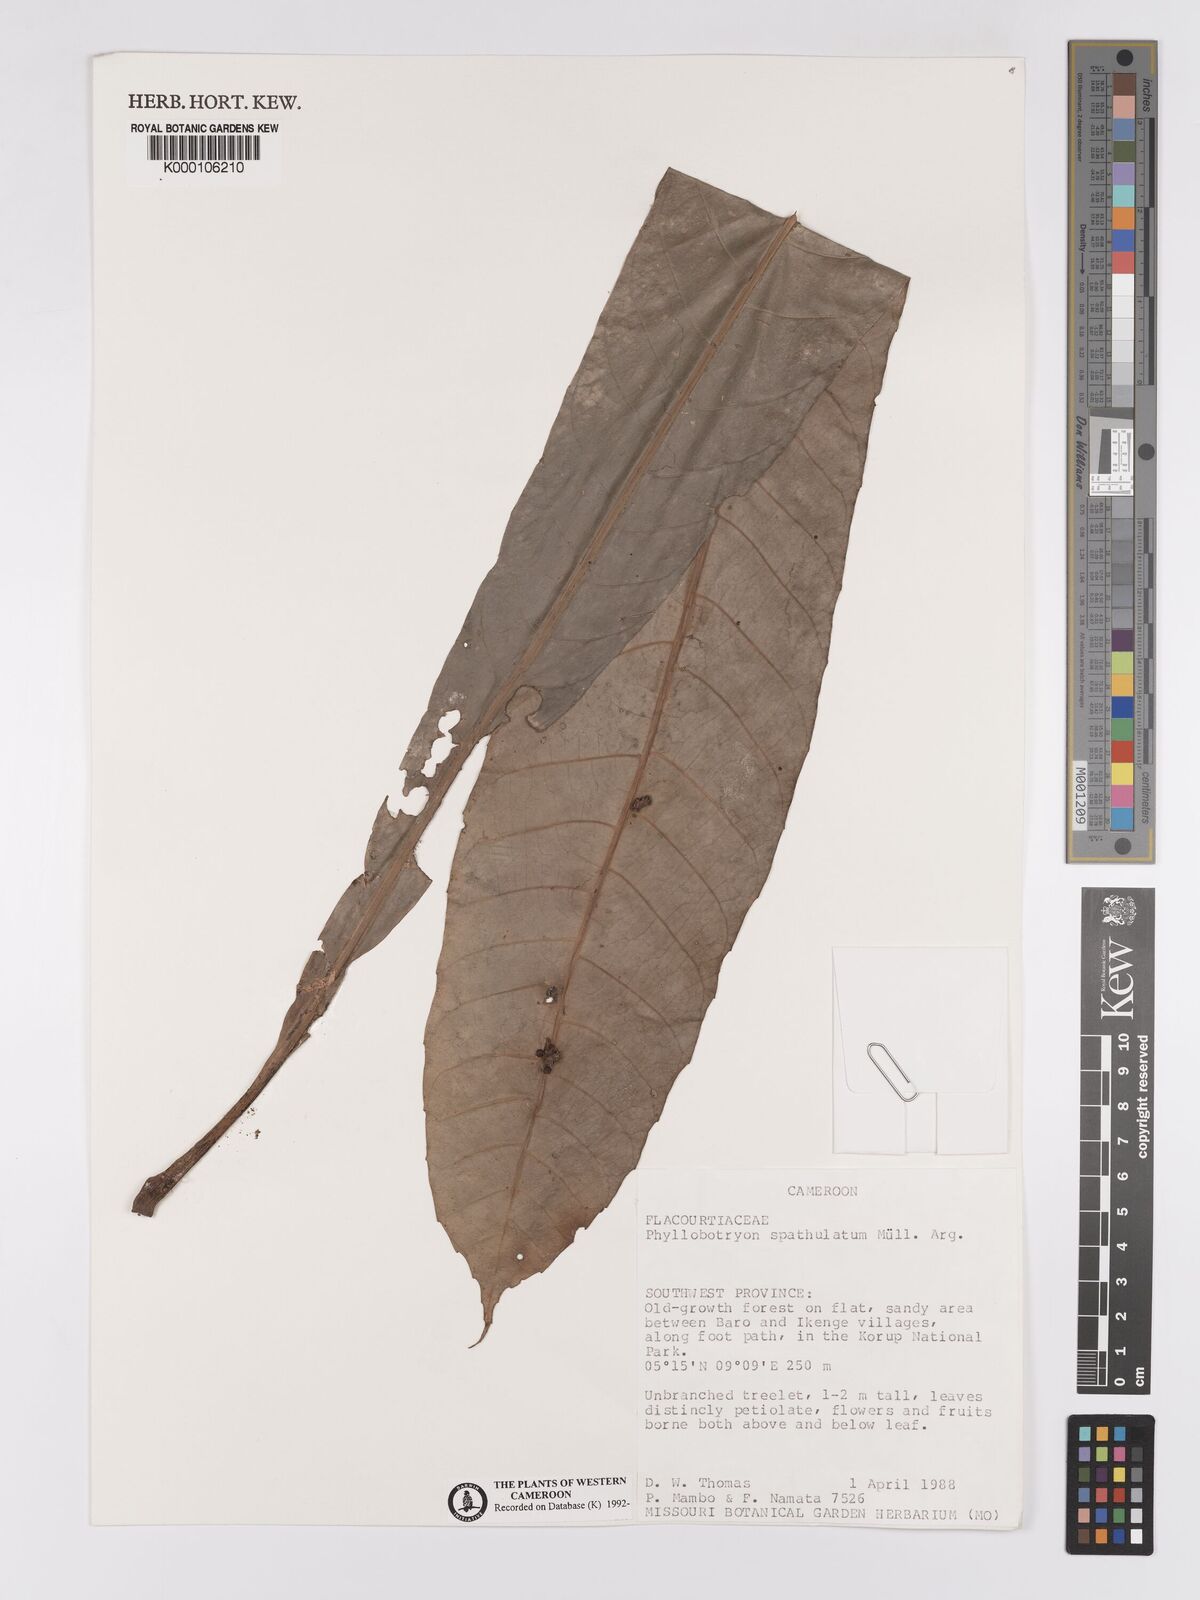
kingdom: Plantae
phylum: Tracheophyta
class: Magnoliopsida
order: Malpighiales
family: Salicaceae
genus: Phyllobotryon
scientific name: Phyllobotryon
